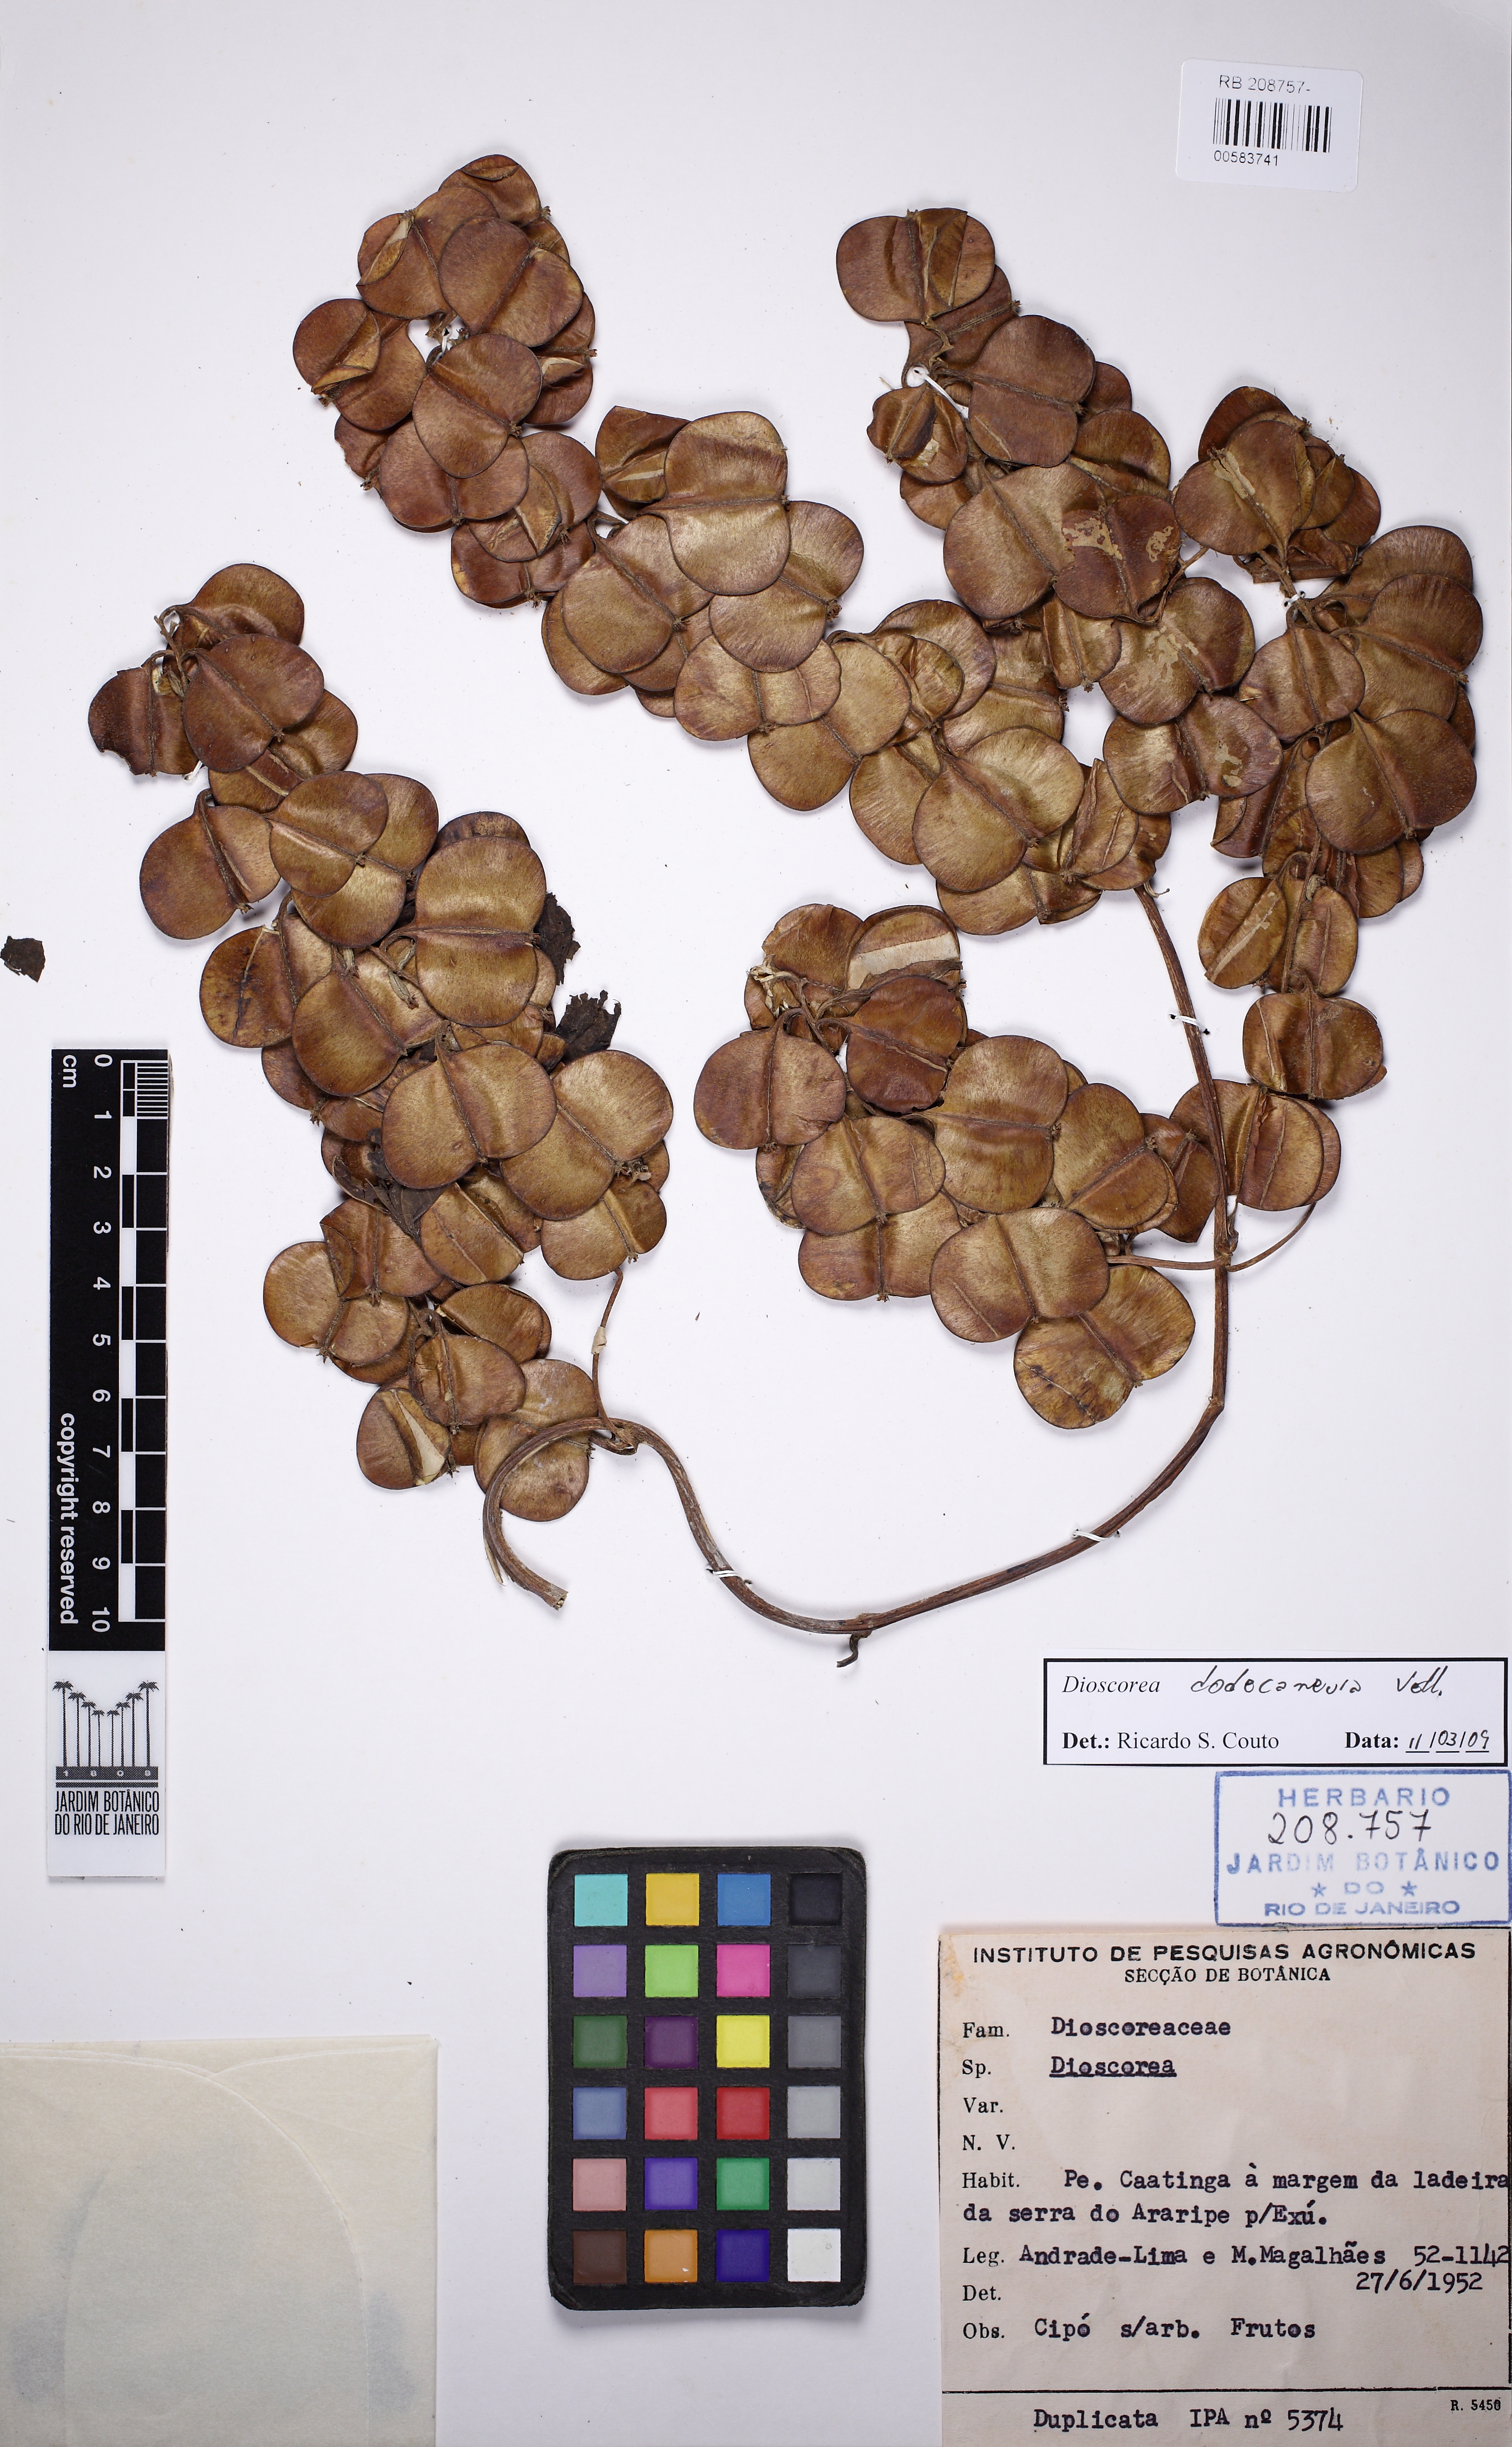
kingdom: Plantae
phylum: Tracheophyta
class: Liliopsida
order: Dioscoreales
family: Dioscoreaceae
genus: Dioscorea
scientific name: Dioscorea
